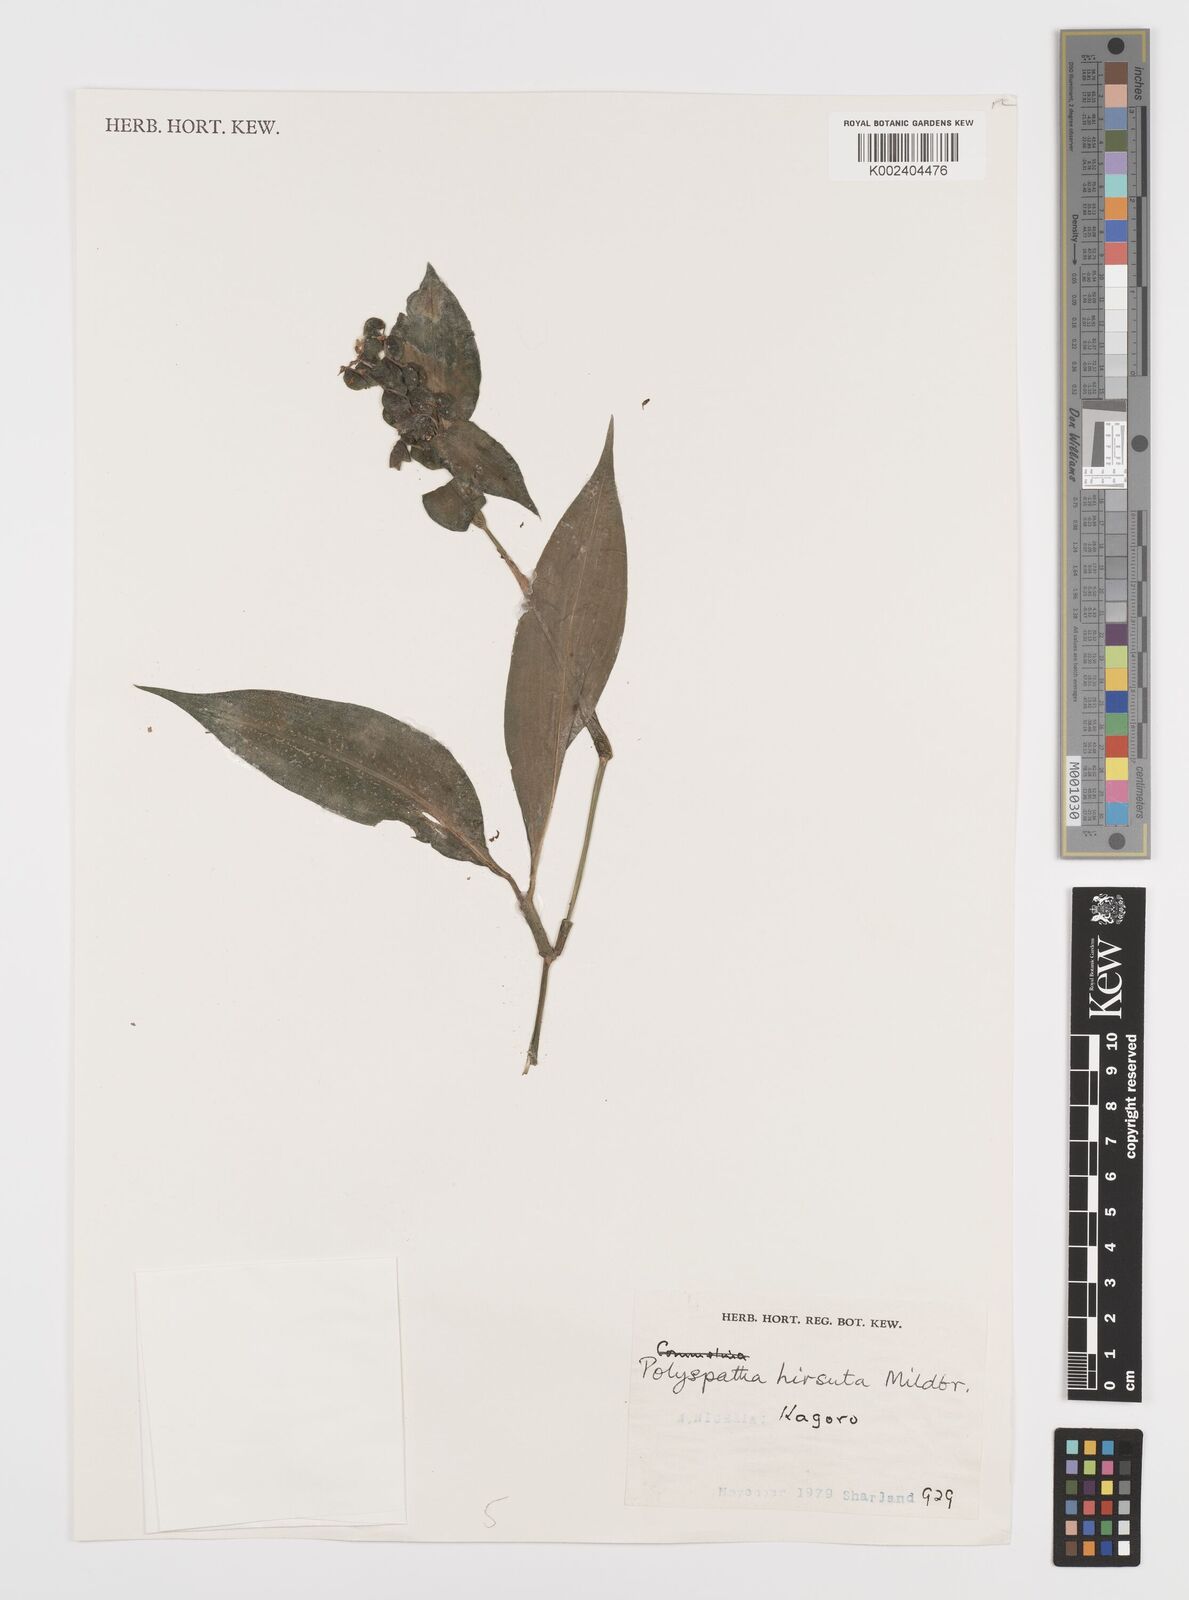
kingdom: Plantae
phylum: Tracheophyta
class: Liliopsida
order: Commelinales
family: Commelinaceae
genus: Polyspatha
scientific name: Polyspatha hirsuta
